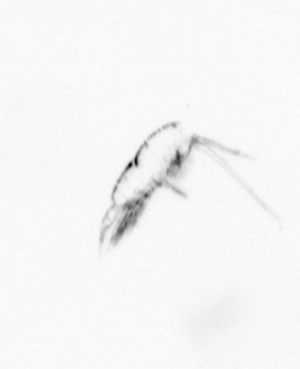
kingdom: Animalia
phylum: Arthropoda
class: Copepoda
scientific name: Copepoda
